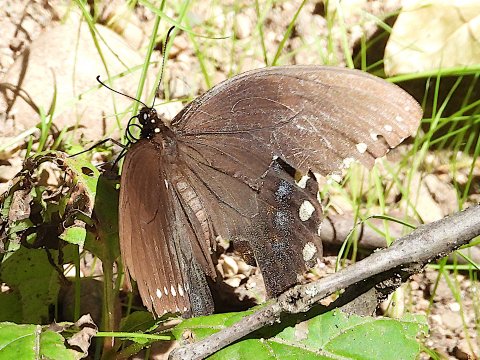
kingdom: Animalia
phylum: Arthropoda
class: Insecta
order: Lepidoptera
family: Papilionidae
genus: Pterourus
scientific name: Pterourus troilus
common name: Spicebush Swallowtail
